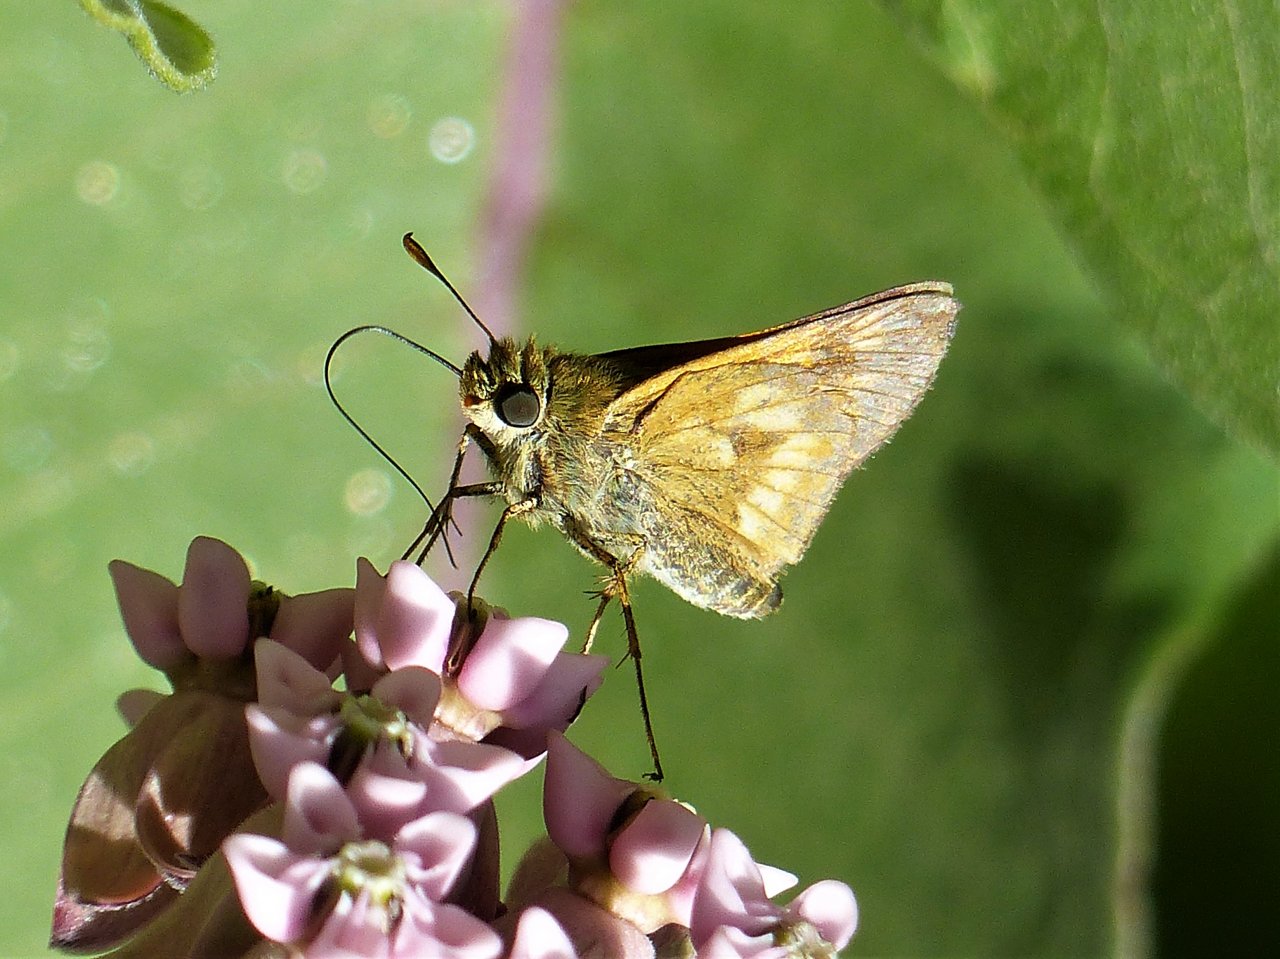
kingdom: Animalia
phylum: Arthropoda
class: Insecta
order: Lepidoptera
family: Hesperiidae
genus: Polites
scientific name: Polites
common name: Long Dash Skipper
